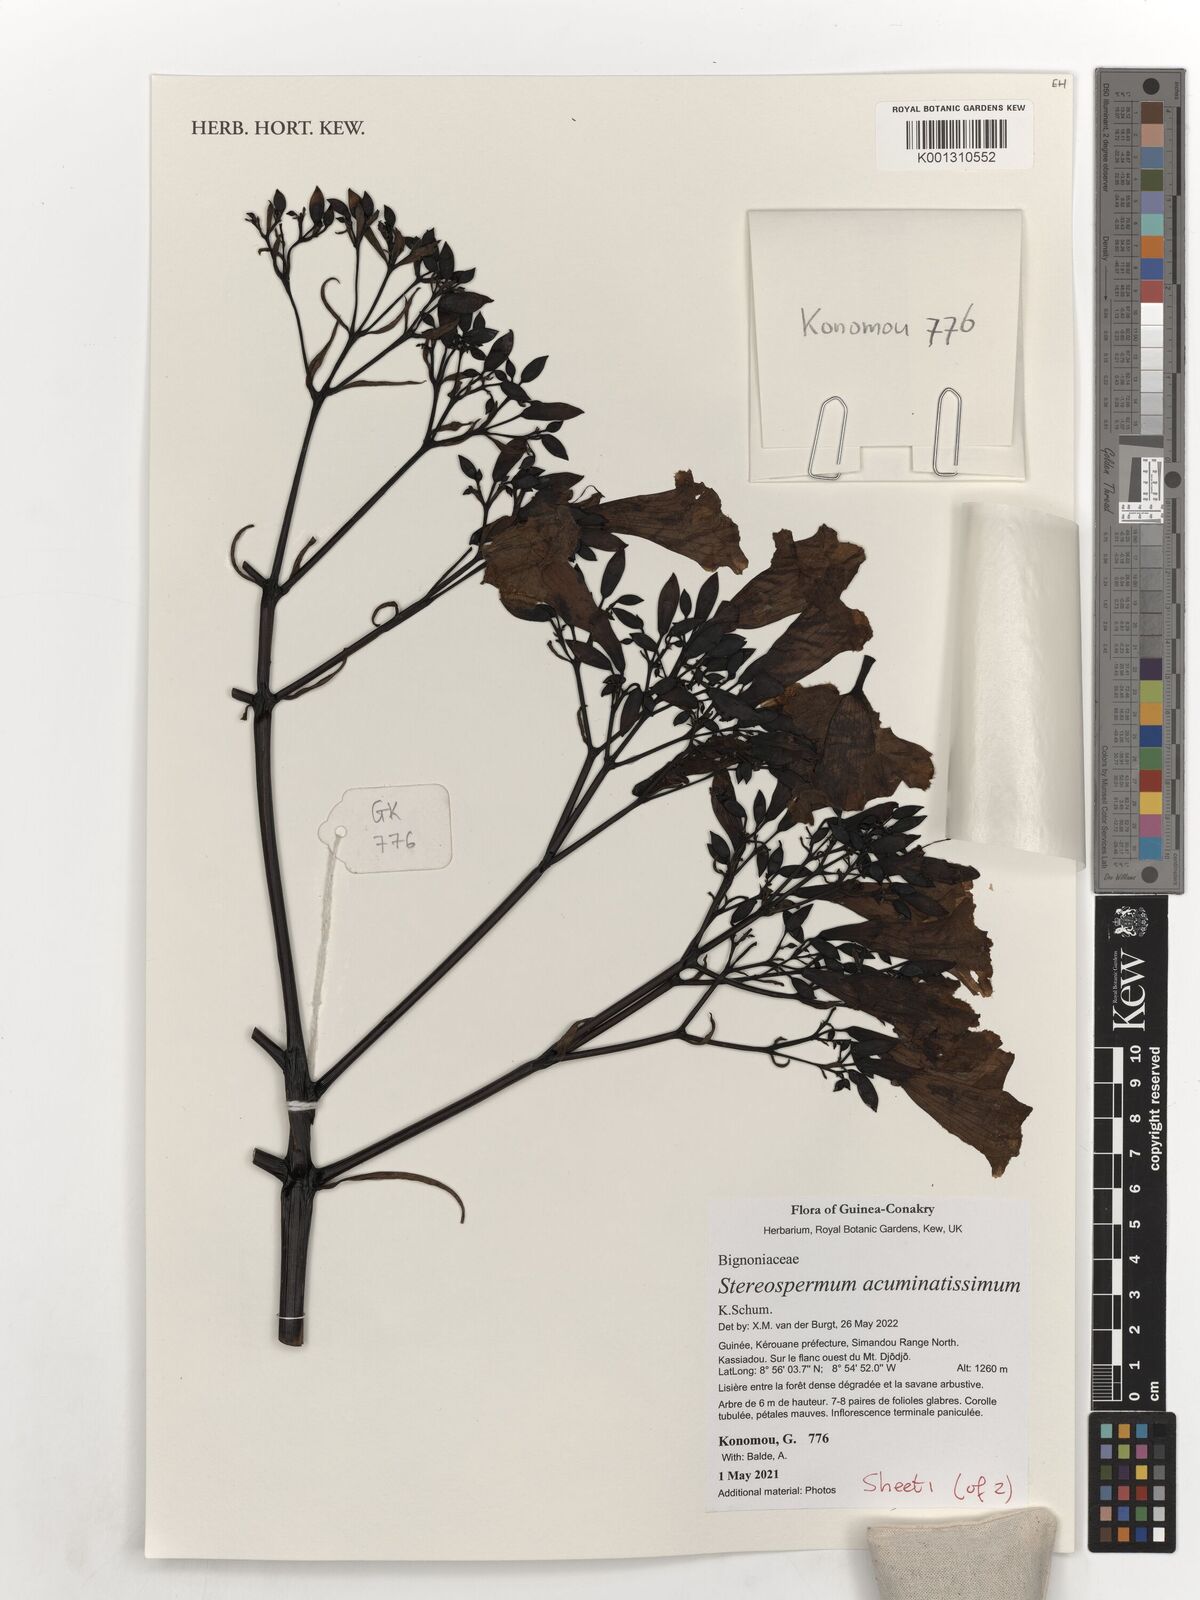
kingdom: Plantae
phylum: Tracheophyta
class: Magnoliopsida
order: Lamiales
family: Bignoniaceae
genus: Stereospermum
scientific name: Stereospermum acuminatissimum
